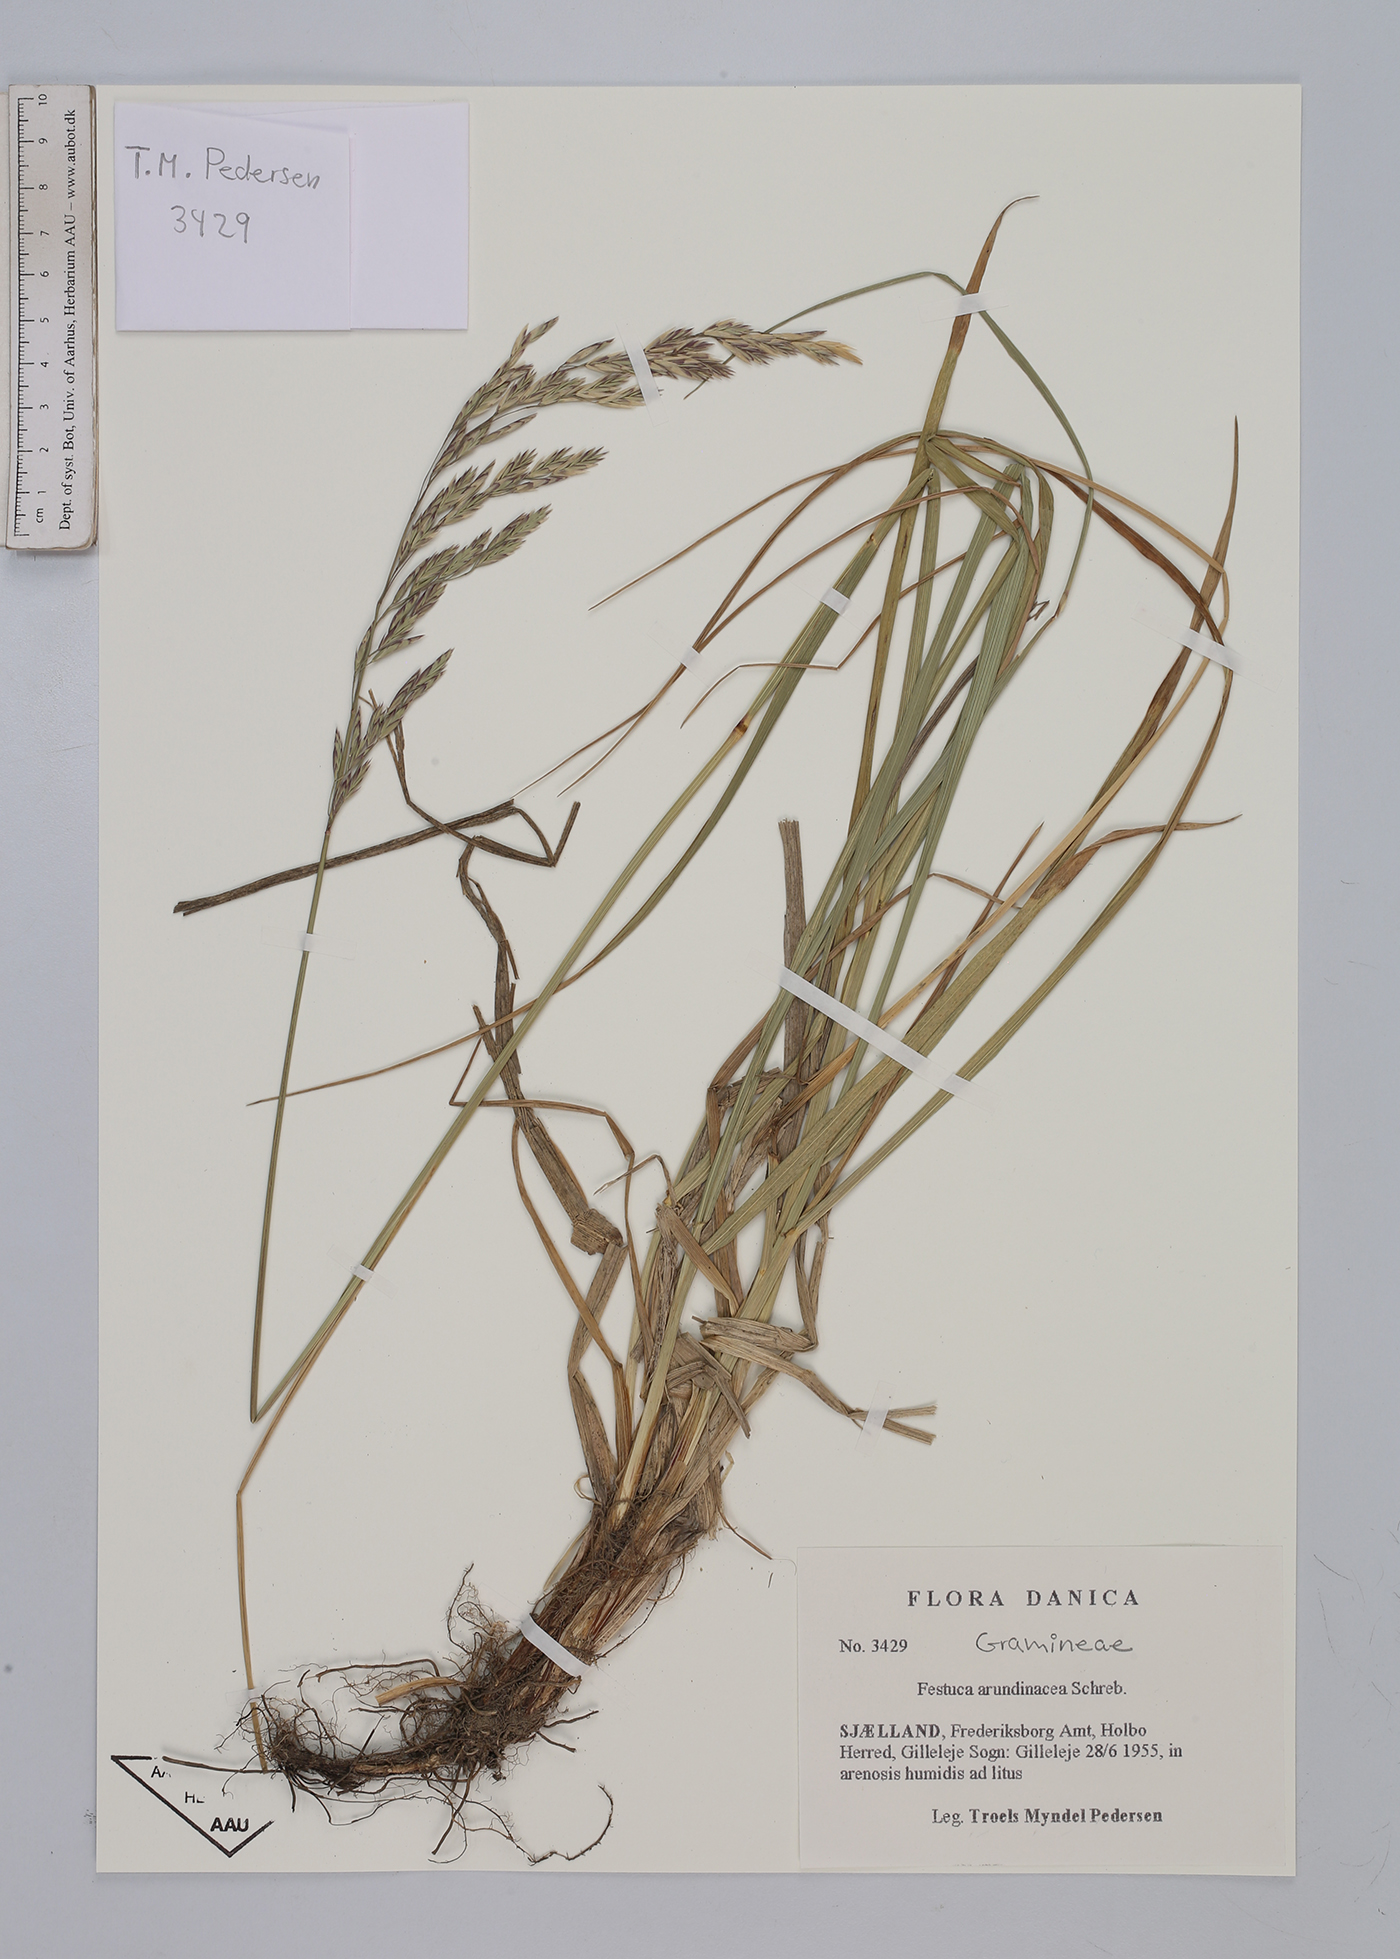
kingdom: Plantae
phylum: Tracheophyta
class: Liliopsida
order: Poales
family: Poaceae
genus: Lolium
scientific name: Lolium arundinaceum
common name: Reed fescue
